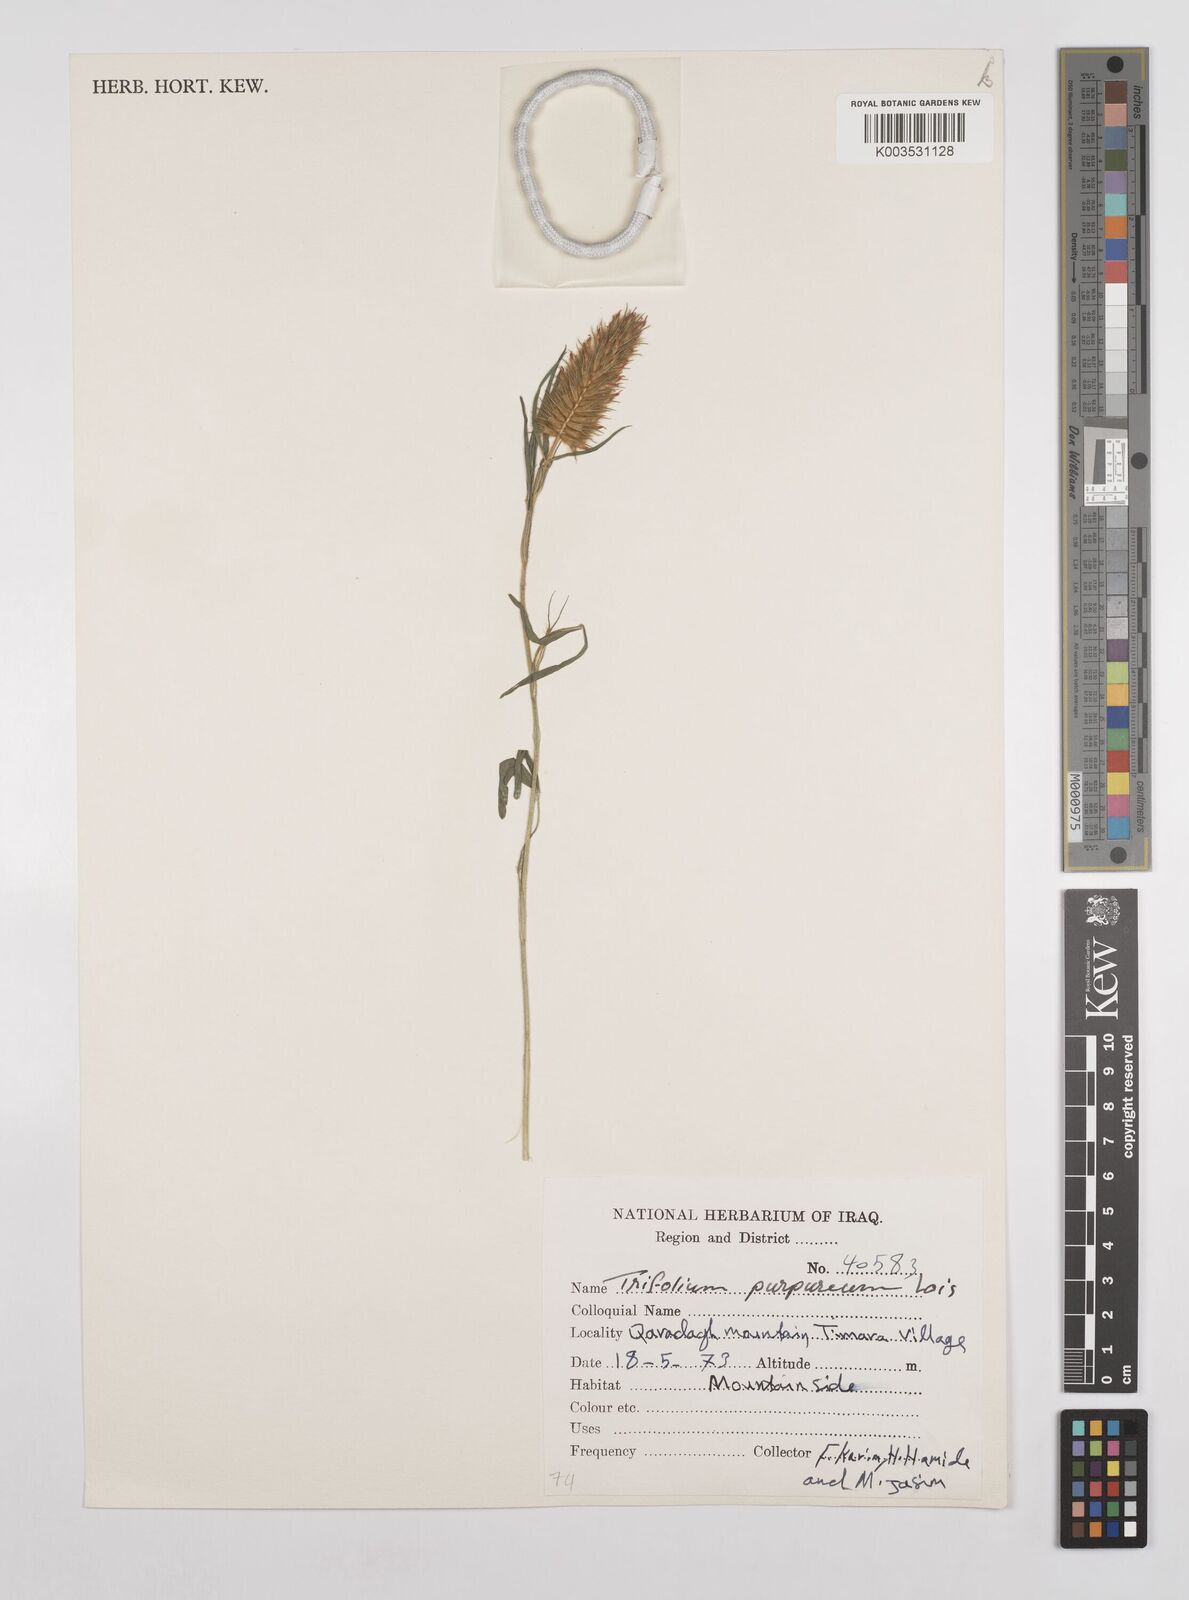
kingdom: Plantae
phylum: Tracheophyta
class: Magnoliopsida
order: Fabales
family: Fabaceae
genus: Trifolium
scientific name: Trifolium purpureum
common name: Purple clover
